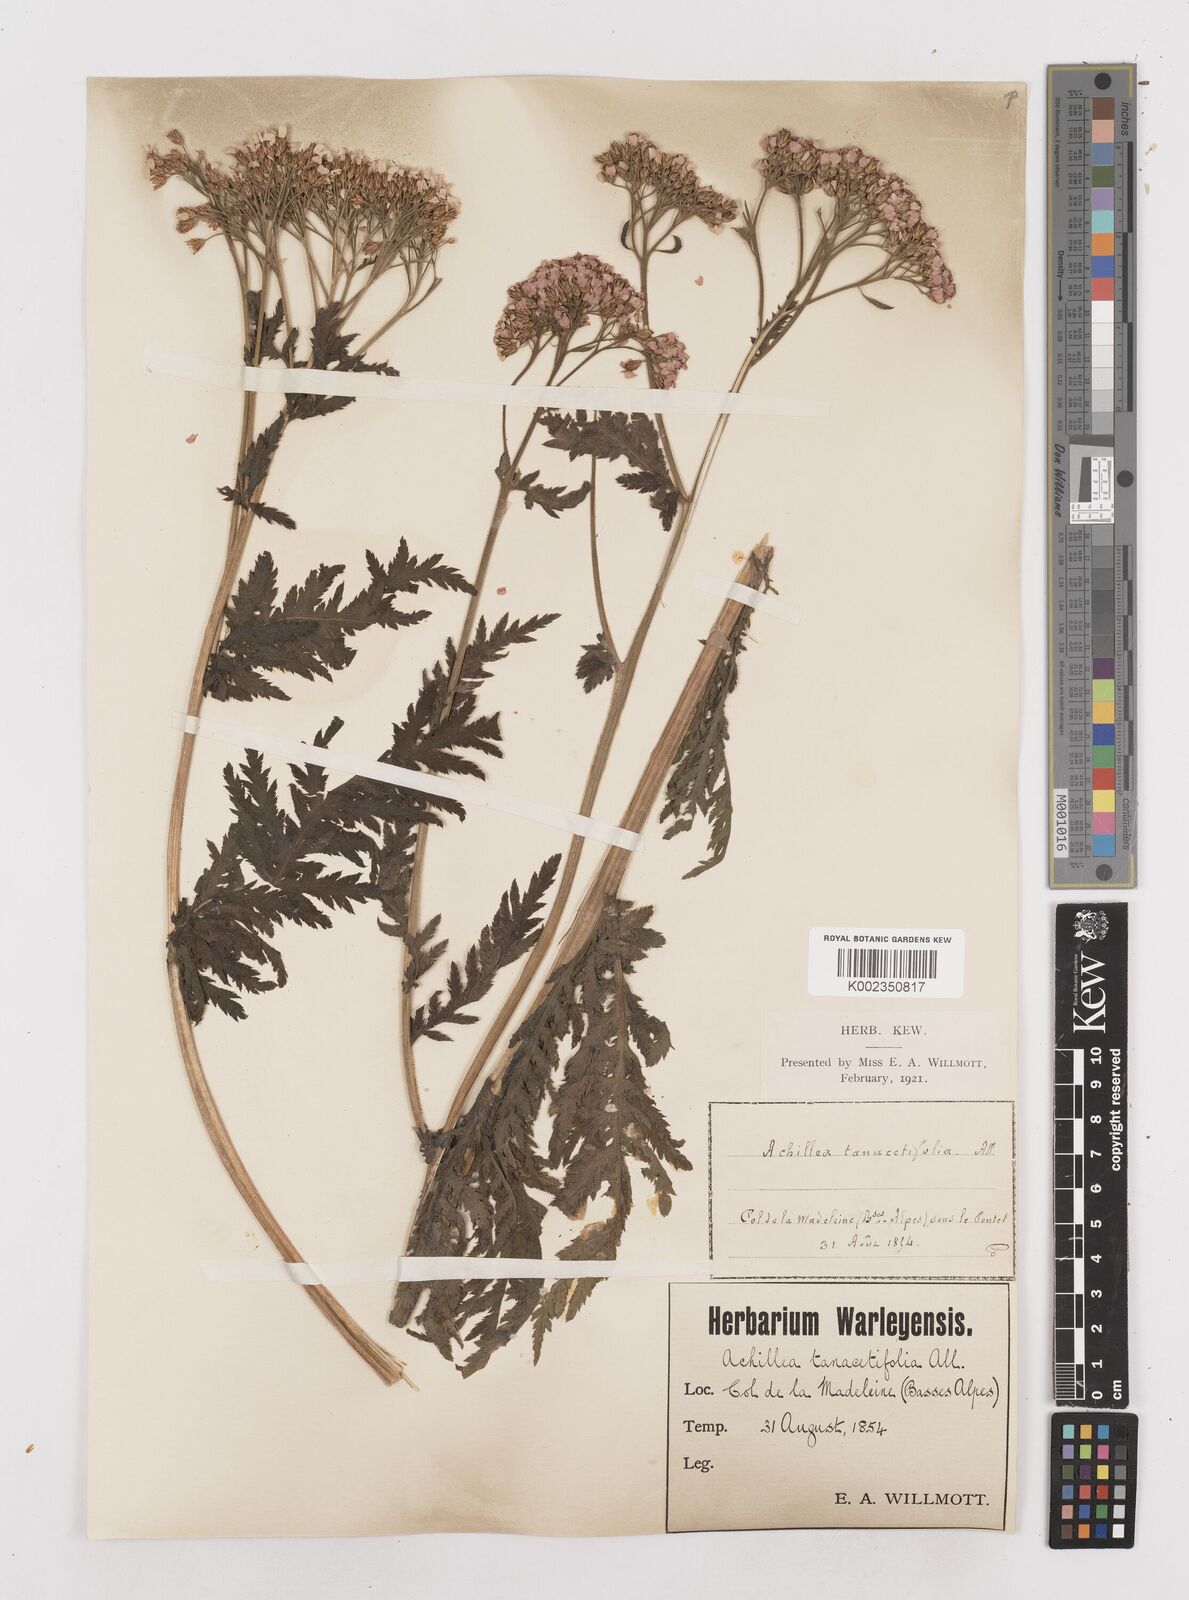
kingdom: Plantae
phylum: Tracheophyta
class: Magnoliopsida
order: Asterales
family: Asteraceae
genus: Achillea
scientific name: Achillea distans
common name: Tall yarrow
